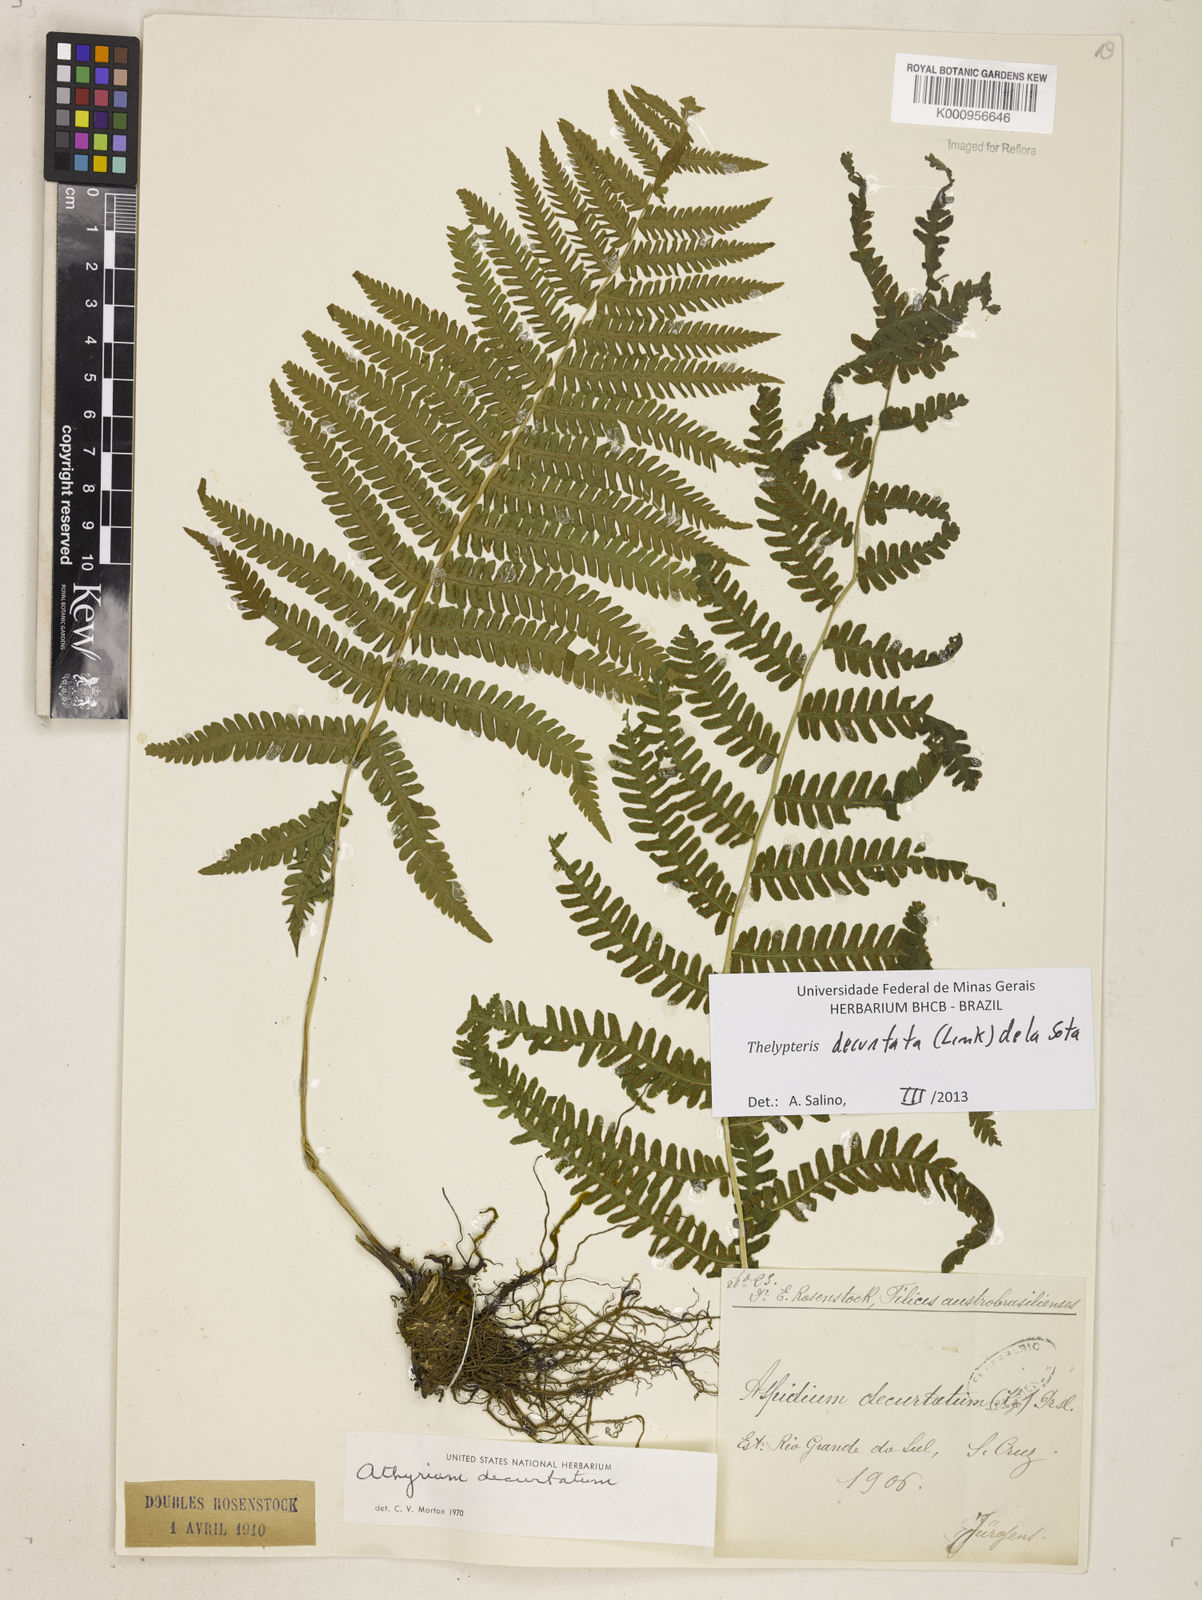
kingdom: Plantae
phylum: Tracheophyta
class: Polypodiopsida
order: Polypodiales
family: Thelypteridaceae
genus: Amauropelta
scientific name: Amauropelta decurtata
